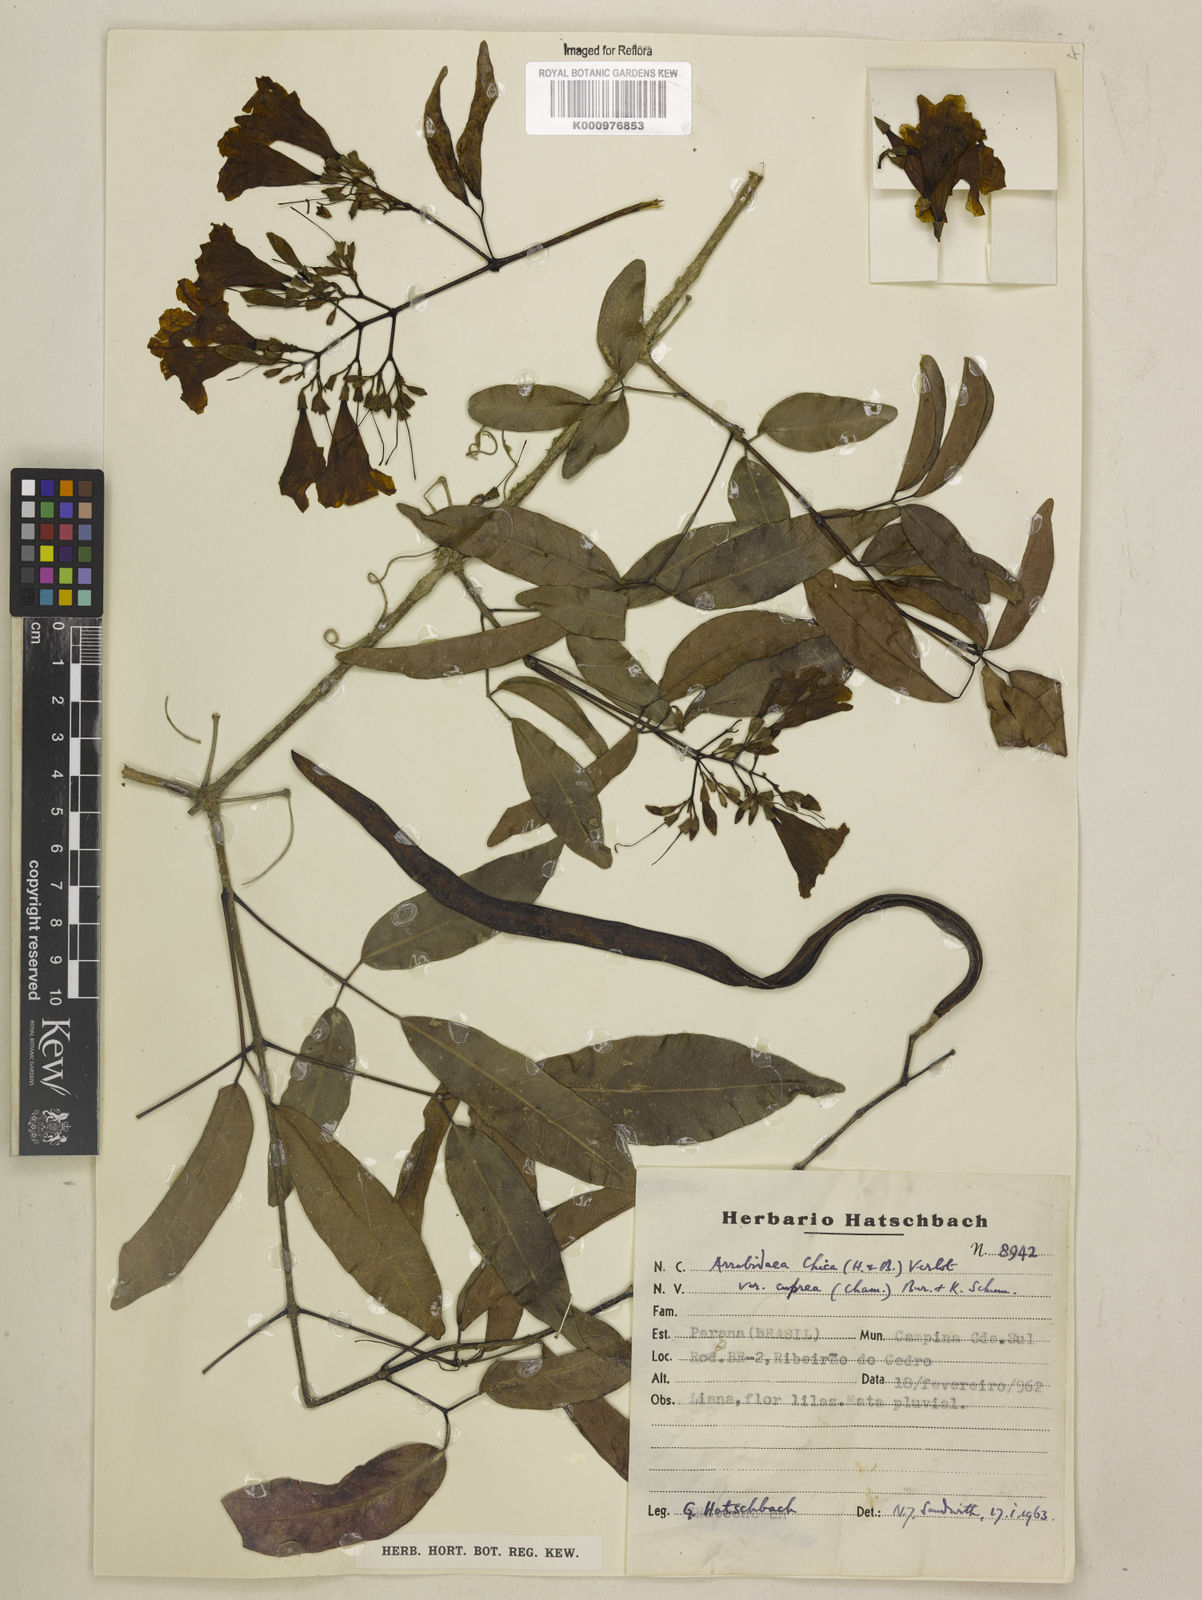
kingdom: Plantae
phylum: Tracheophyta
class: Magnoliopsida
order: Lamiales
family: Bignoniaceae
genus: Fridericia
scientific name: Fridericia chica
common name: Cricketvine
